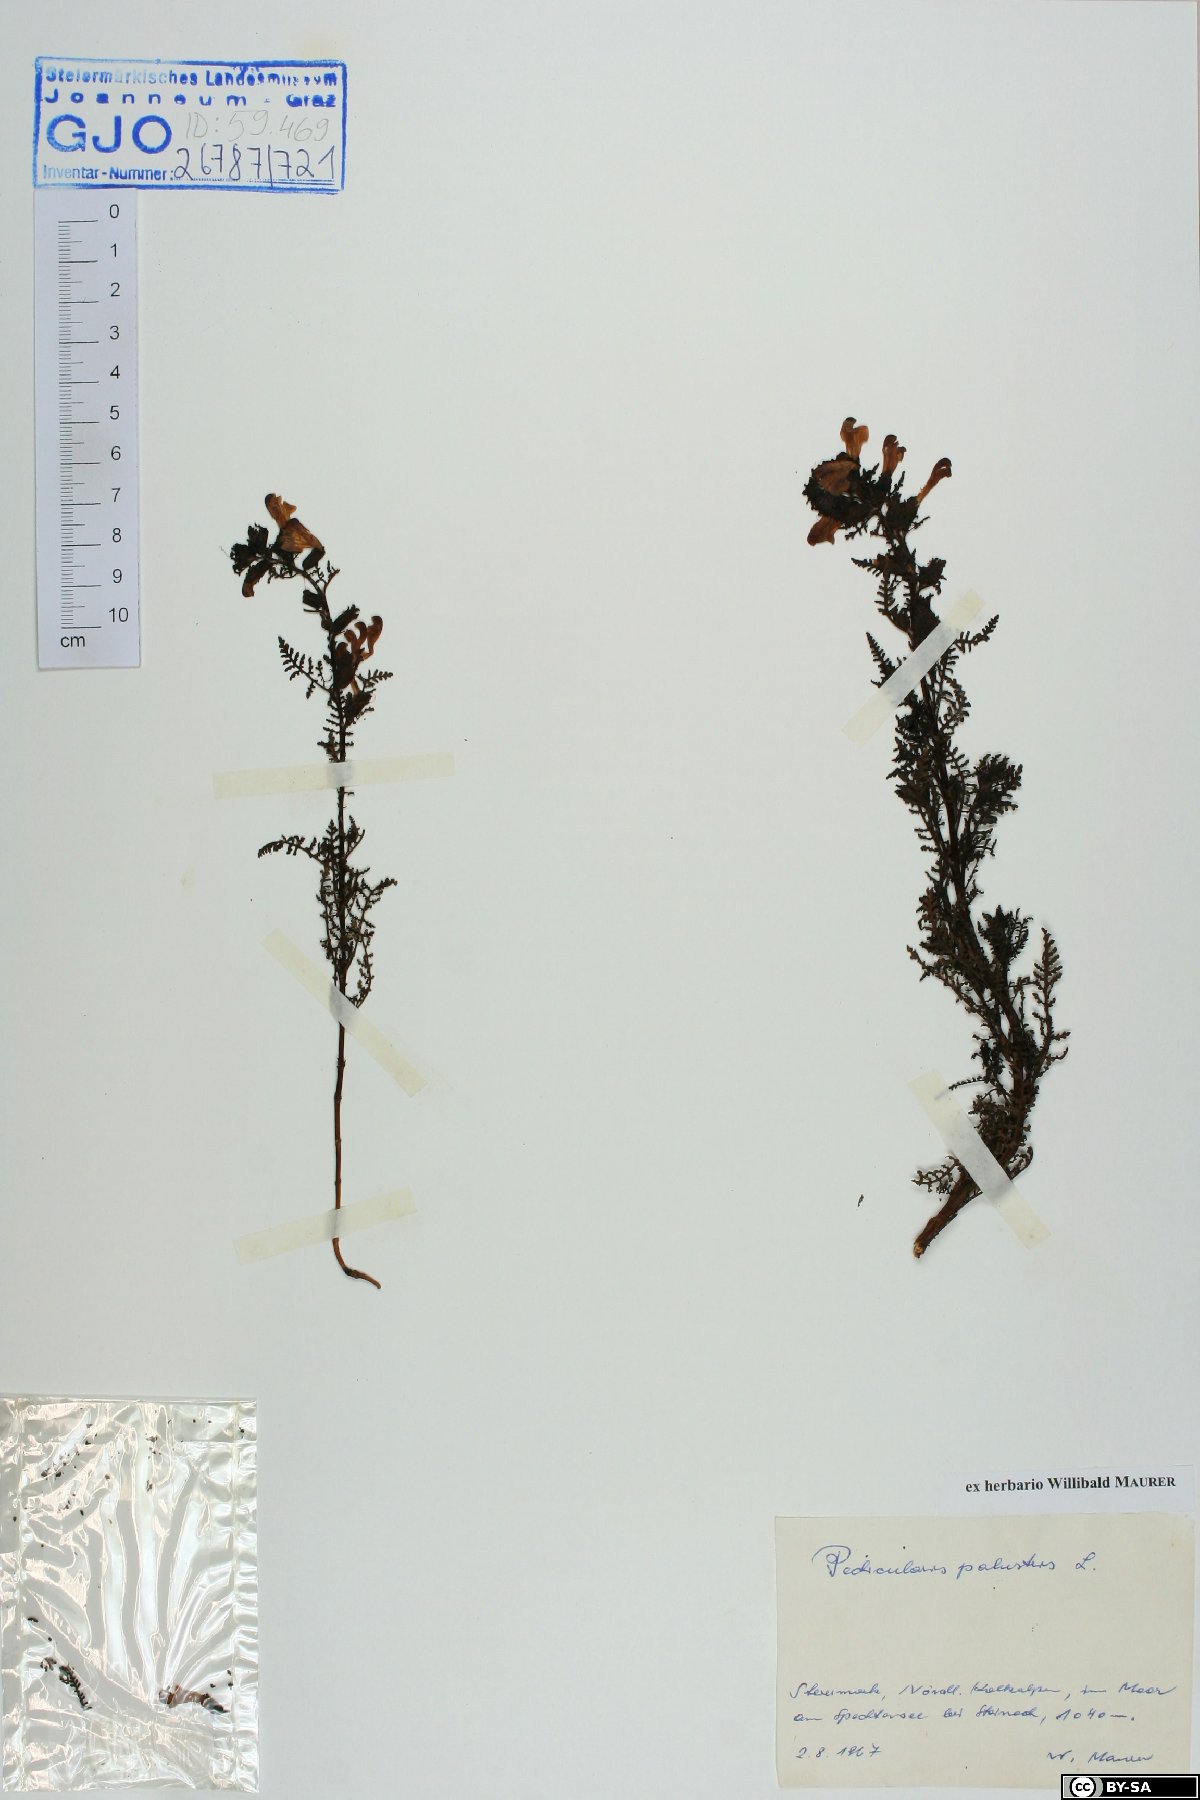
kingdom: Plantae
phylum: Tracheophyta
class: Magnoliopsida
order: Lamiales
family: Orobanchaceae
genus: Pedicularis
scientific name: Pedicularis palustris
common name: Marsh lousewort
